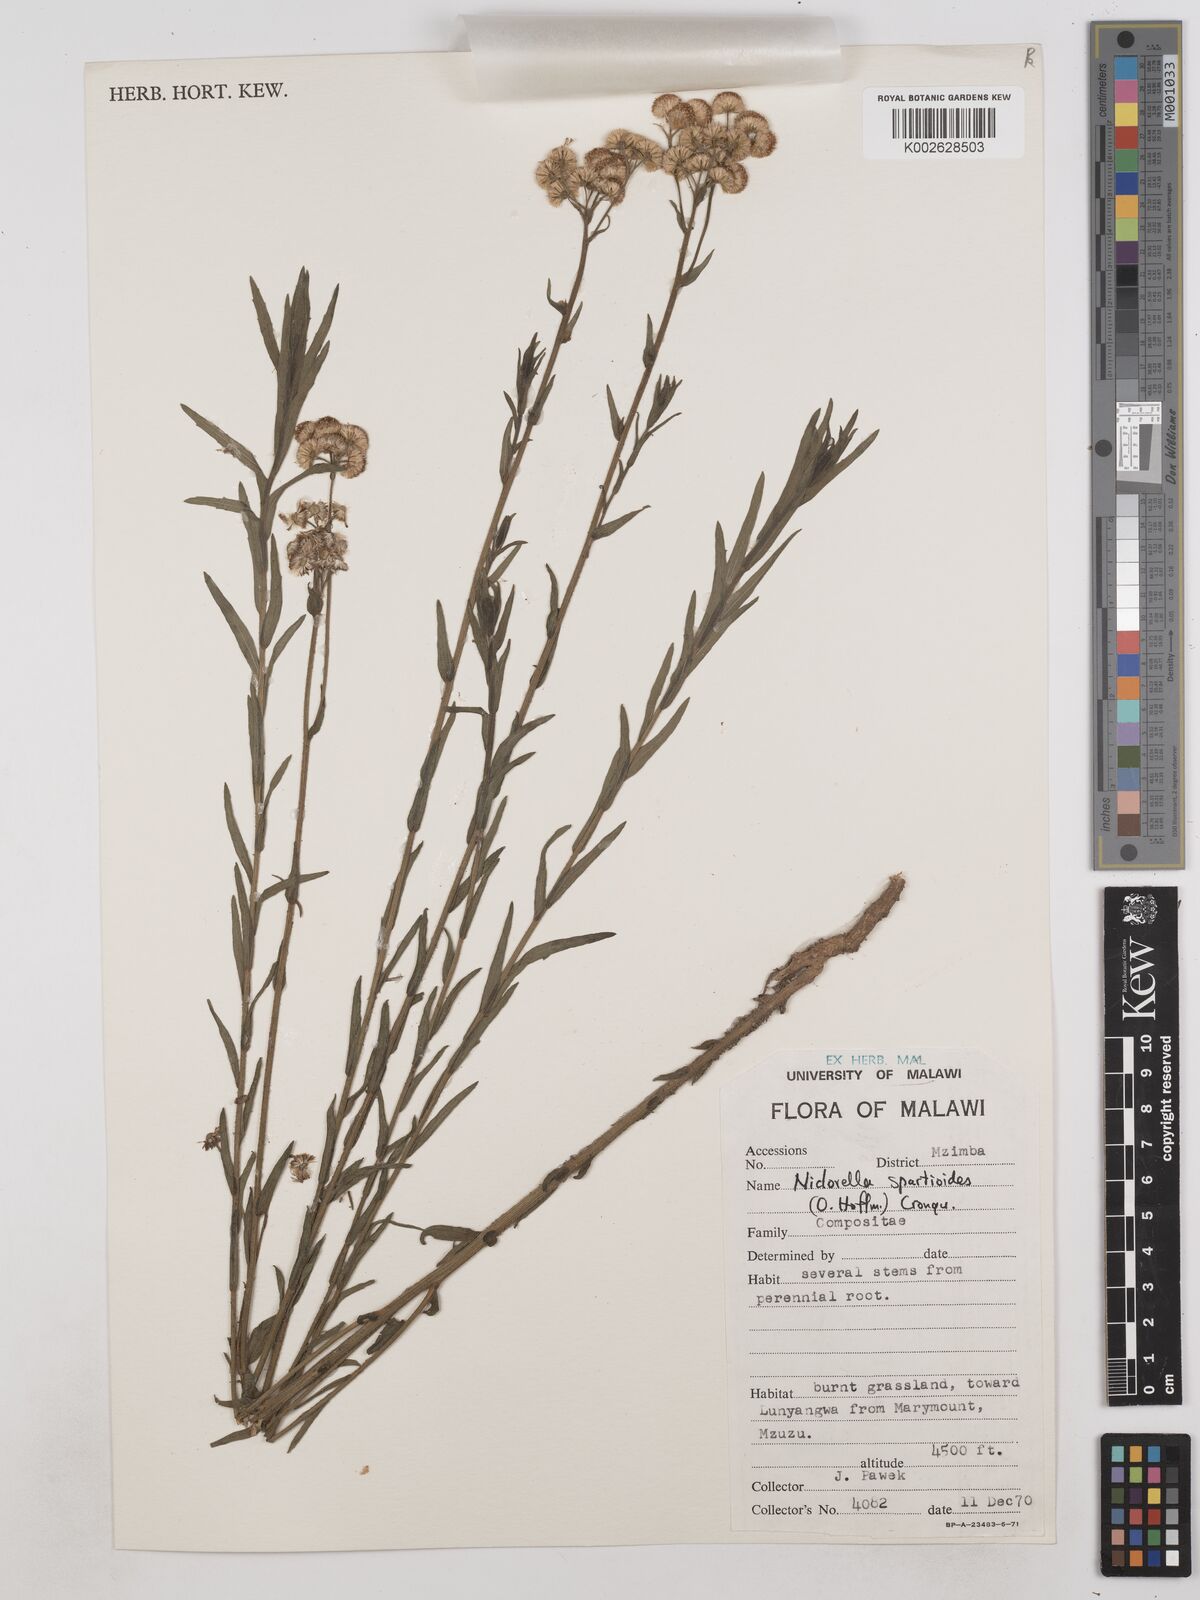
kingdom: Plantae
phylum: Tracheophyta
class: Magnoliopsida
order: Asterales
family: Asteraceae
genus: Nidorella
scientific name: Nidorella spartioides
